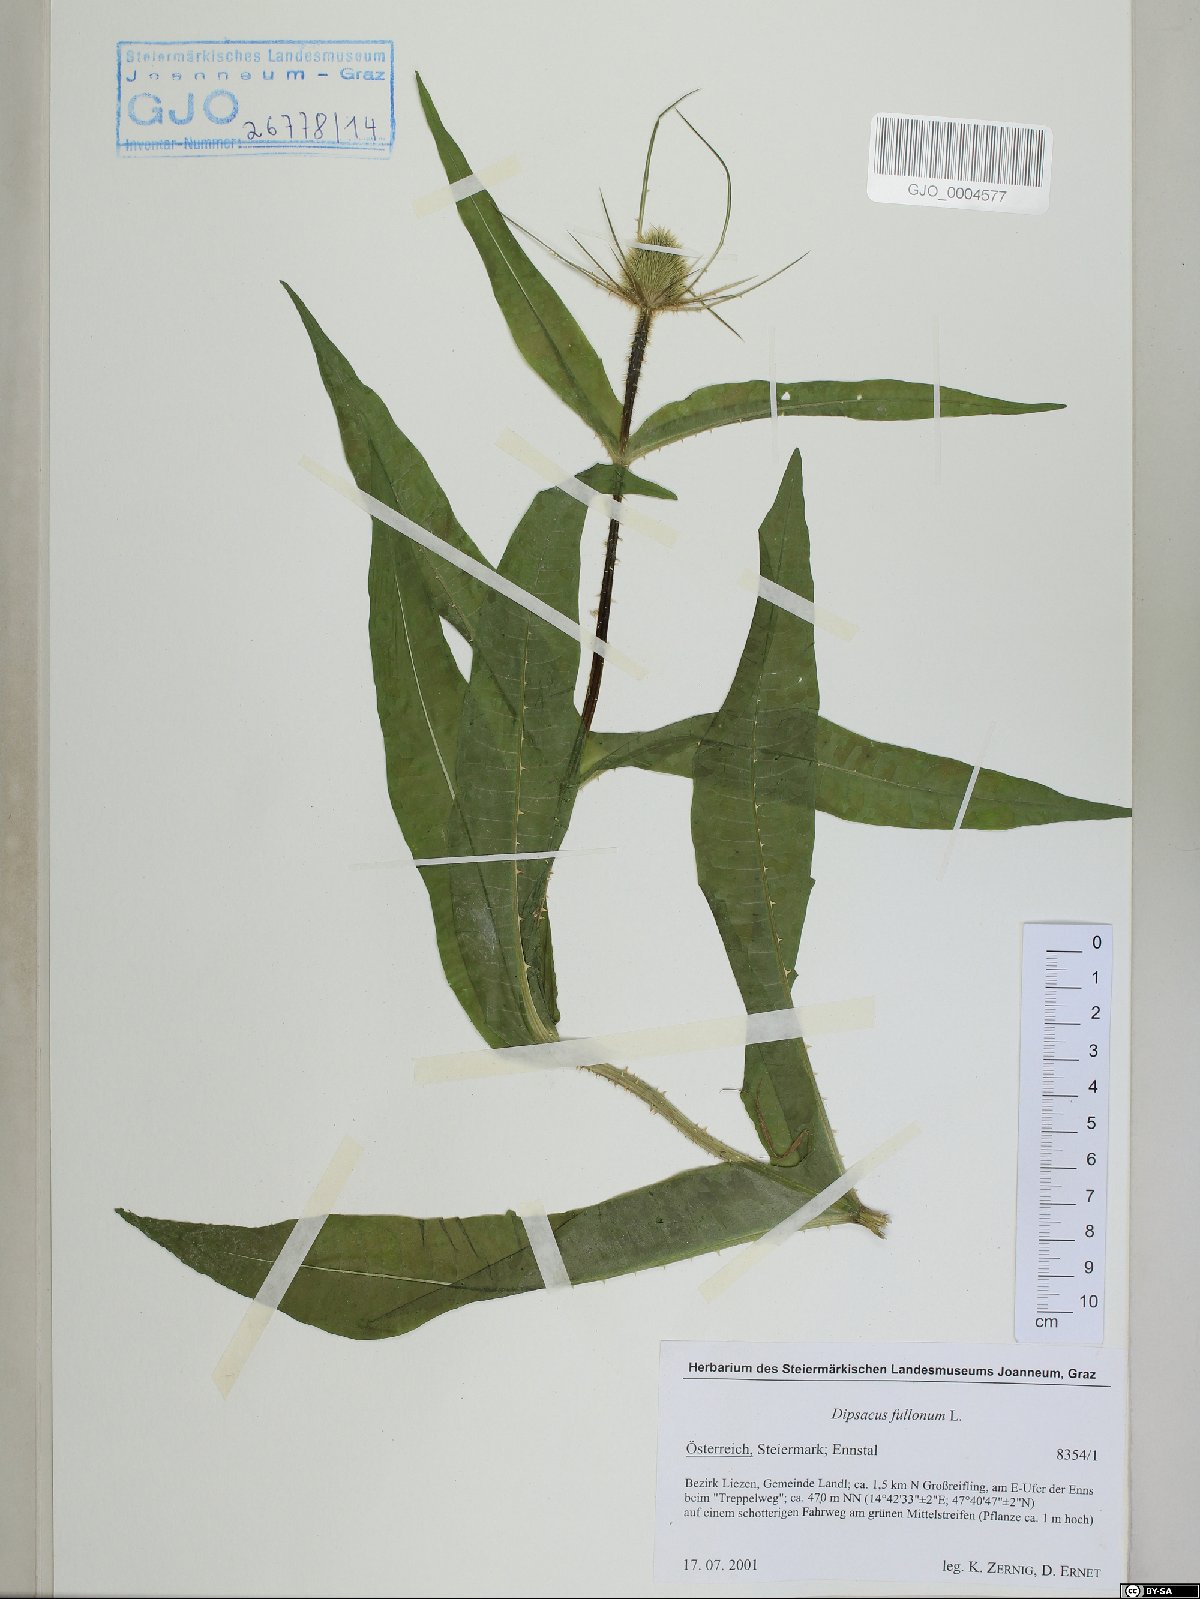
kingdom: Plantae
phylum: Tracheophyta
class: Magnoliopsida
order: Dipsacales
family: Caprifoliaceae
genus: Dipsacus
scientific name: Dipsacus fullonum
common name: Teasel
